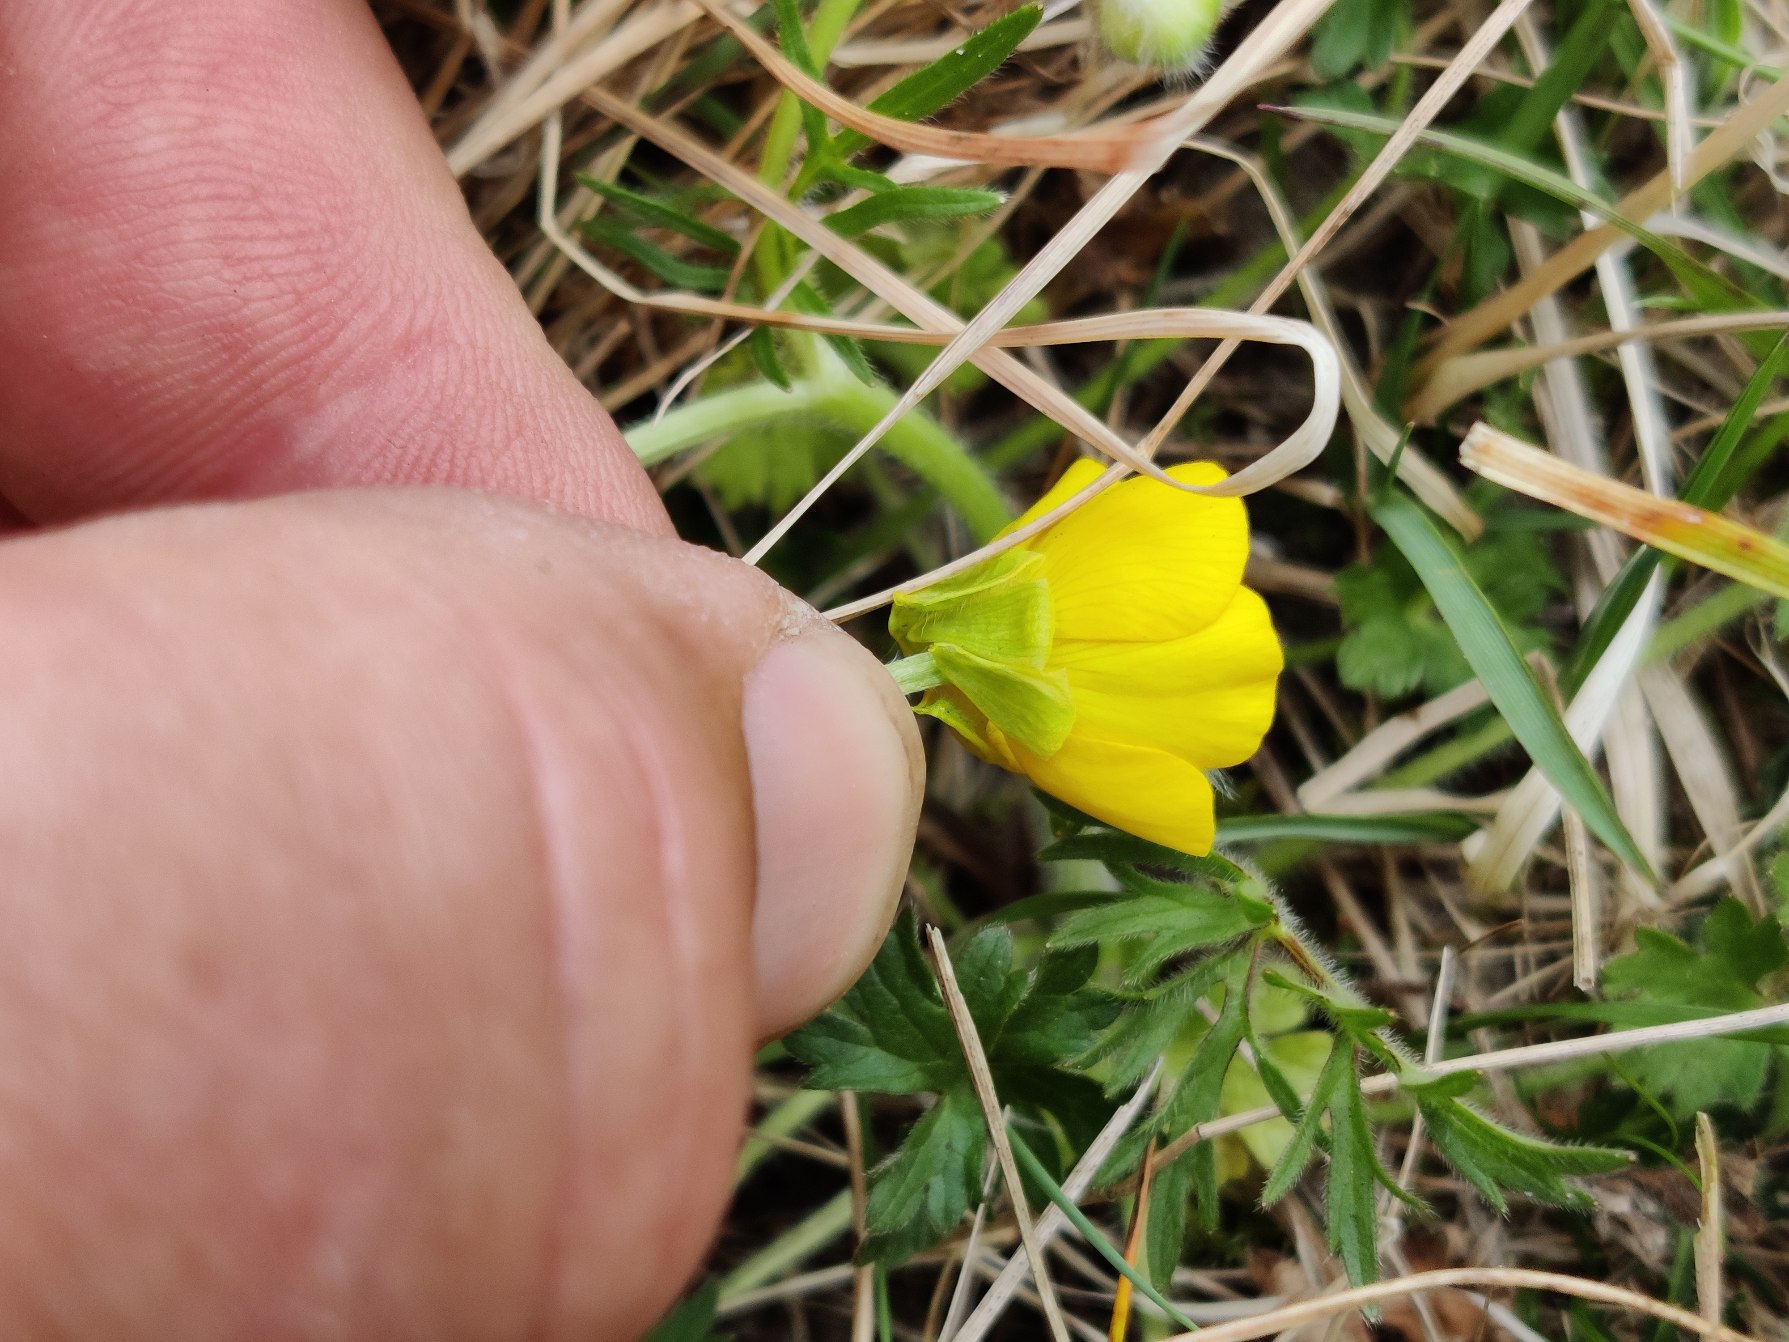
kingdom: Plantae
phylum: Tracheophyta
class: Magnoliopsida
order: Ranunculales
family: Ranunculaceae
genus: Ranunculus
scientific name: Ranunculus bulbosus
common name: Knold-ranunkel
